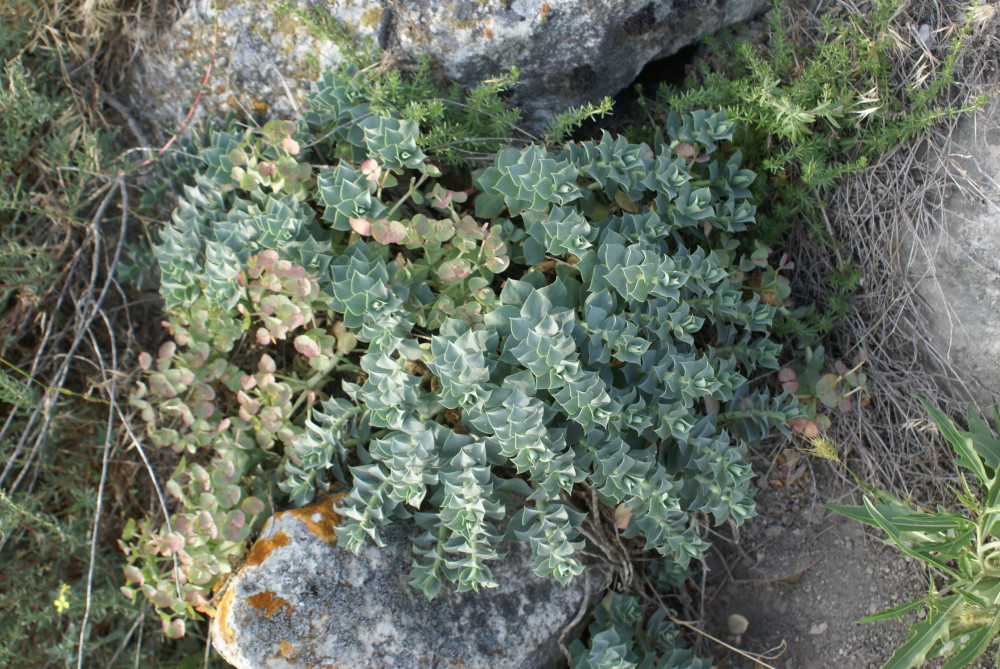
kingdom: Plantae
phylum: Tracheophyta
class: Magnoliopsida
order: Malpighiales
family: Euphorbiaceae
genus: Euphorbia
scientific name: Euphorbia myrsinites
